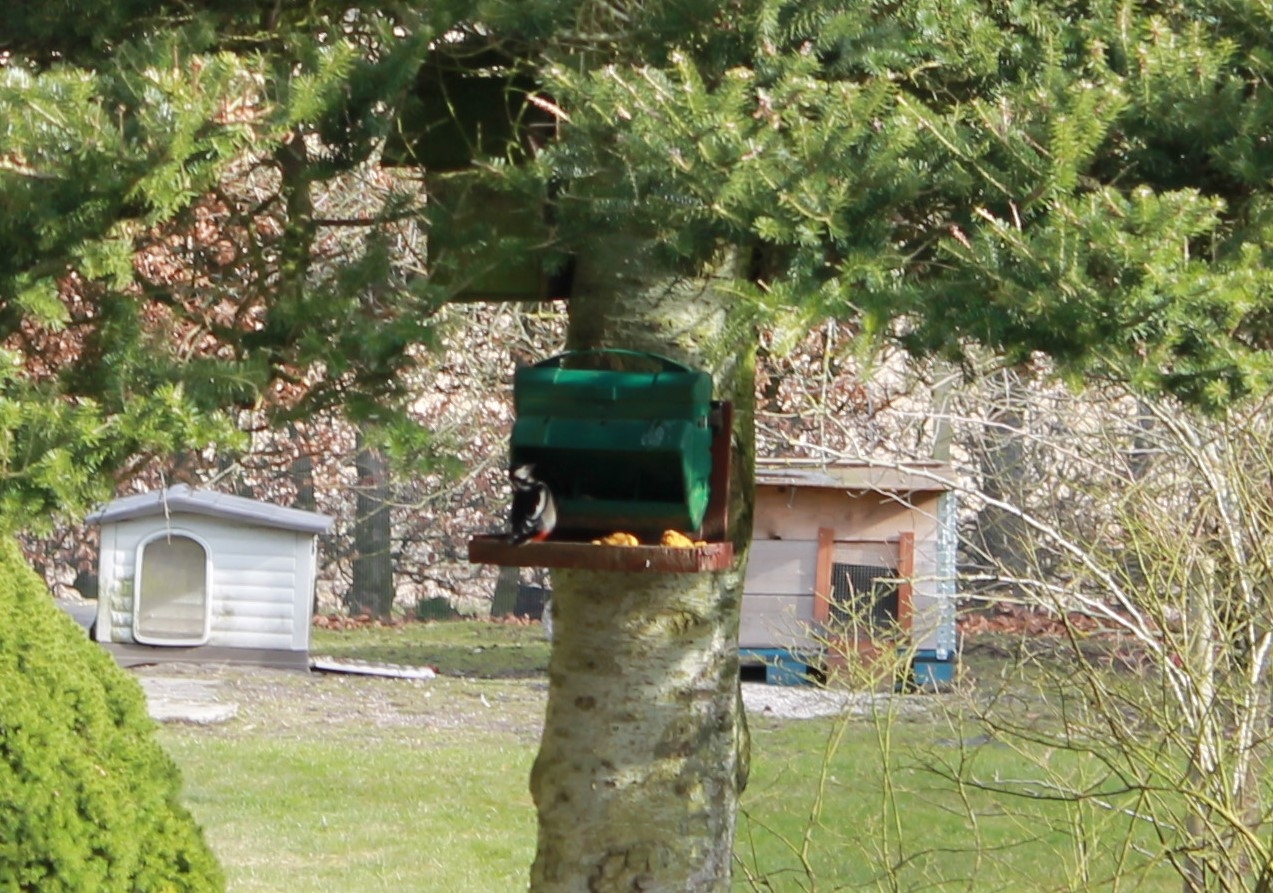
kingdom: Animalia
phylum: Chordata
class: Aves
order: Piciformes
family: Picidae
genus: Dendrocopos
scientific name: Dendrocopos major
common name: Stor flagspætte
